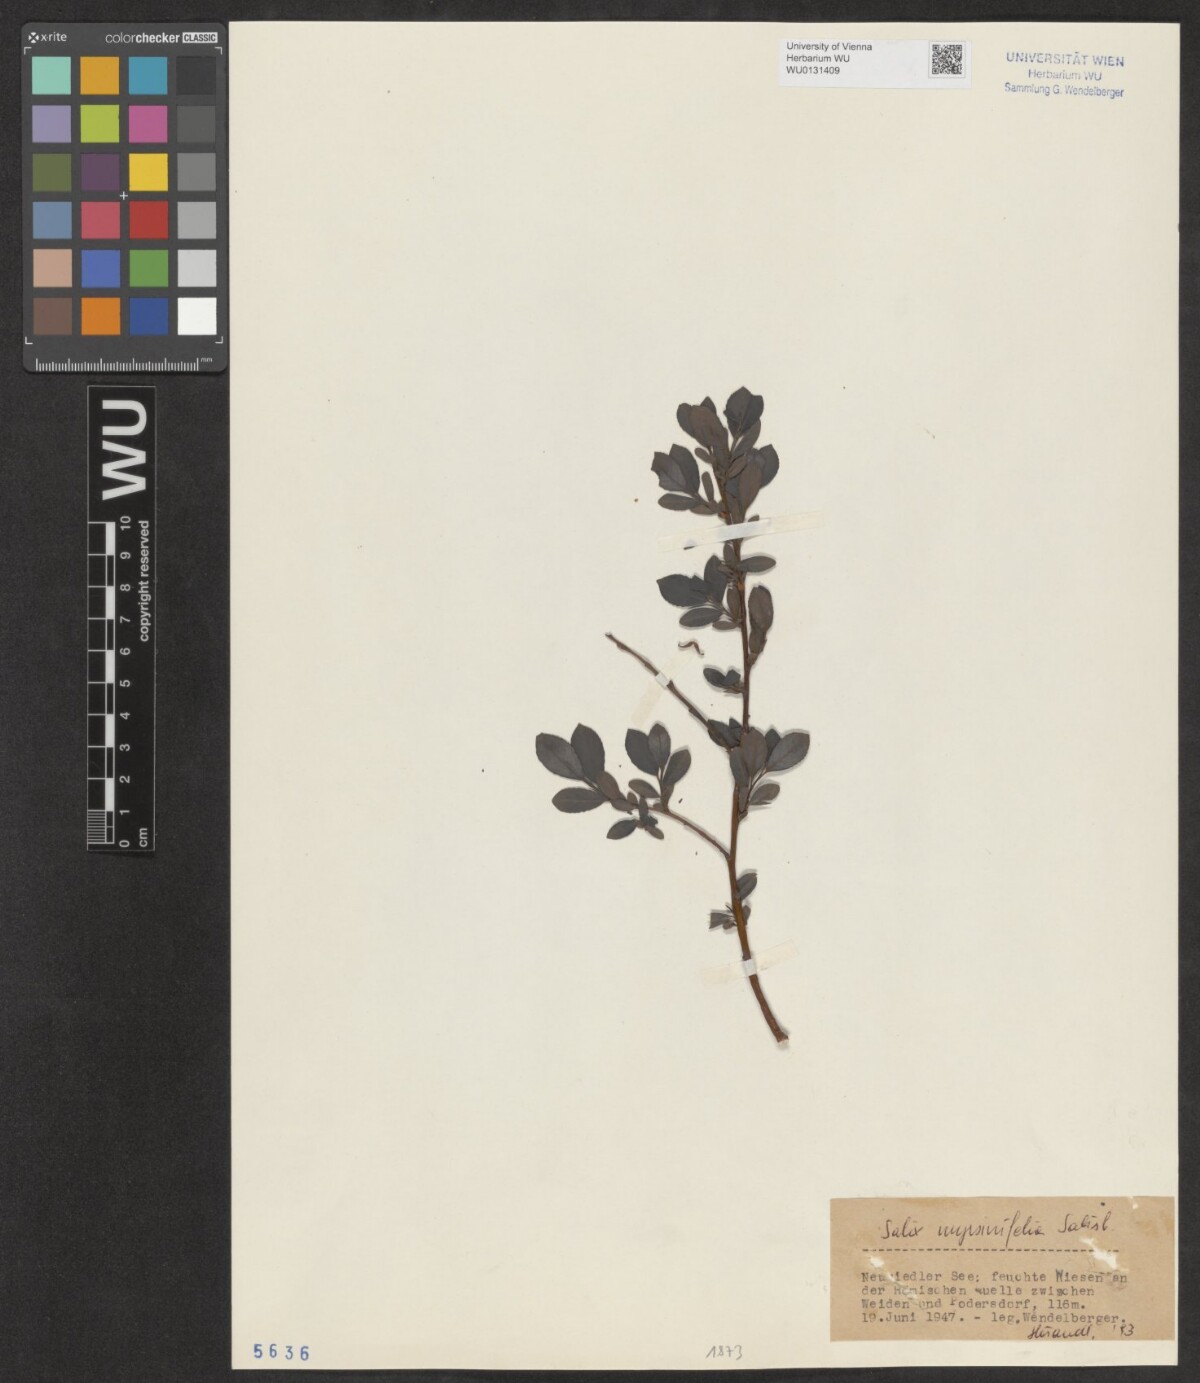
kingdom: Plantae
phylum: Tracheophyta
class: Magnoliopsida
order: Malpighiales
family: Salicaceae
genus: Salix
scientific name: Salix myrsinifolia
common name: Dark-leaved willow
